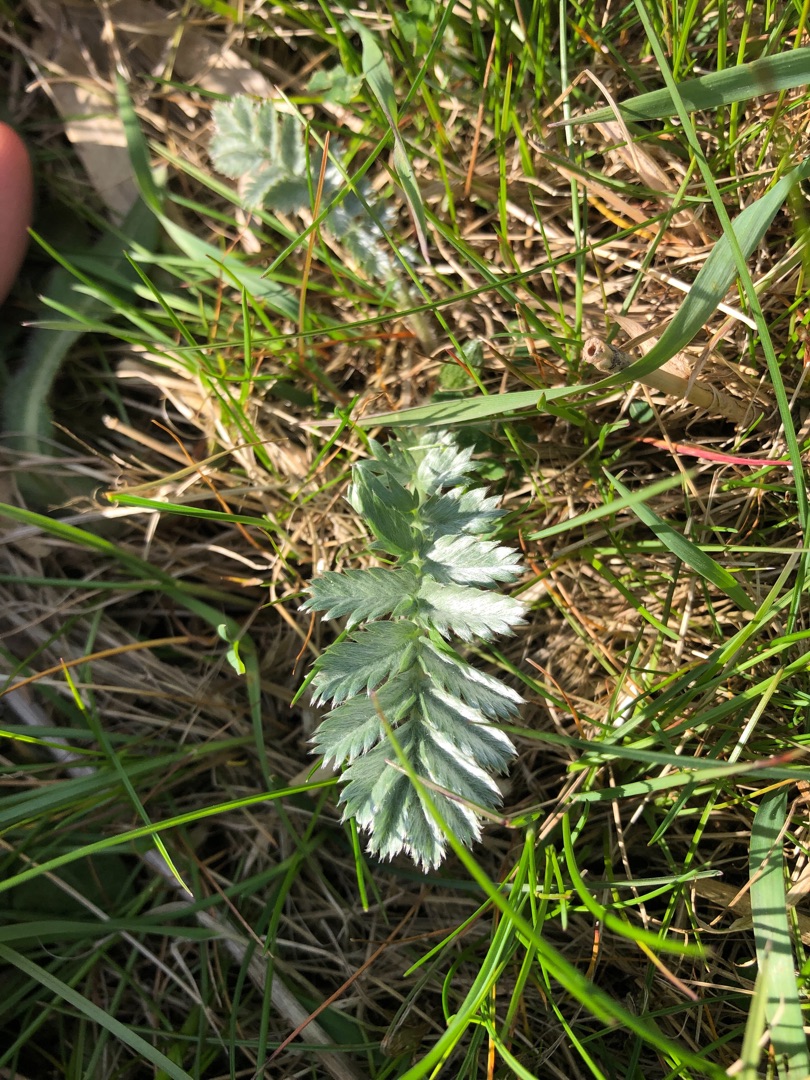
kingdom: Plantae
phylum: Tracheophyta
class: Magnoliopsida
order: Rosales
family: Rosaceae
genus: Argentina
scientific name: Argentina anserina
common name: Gåsepotentil
